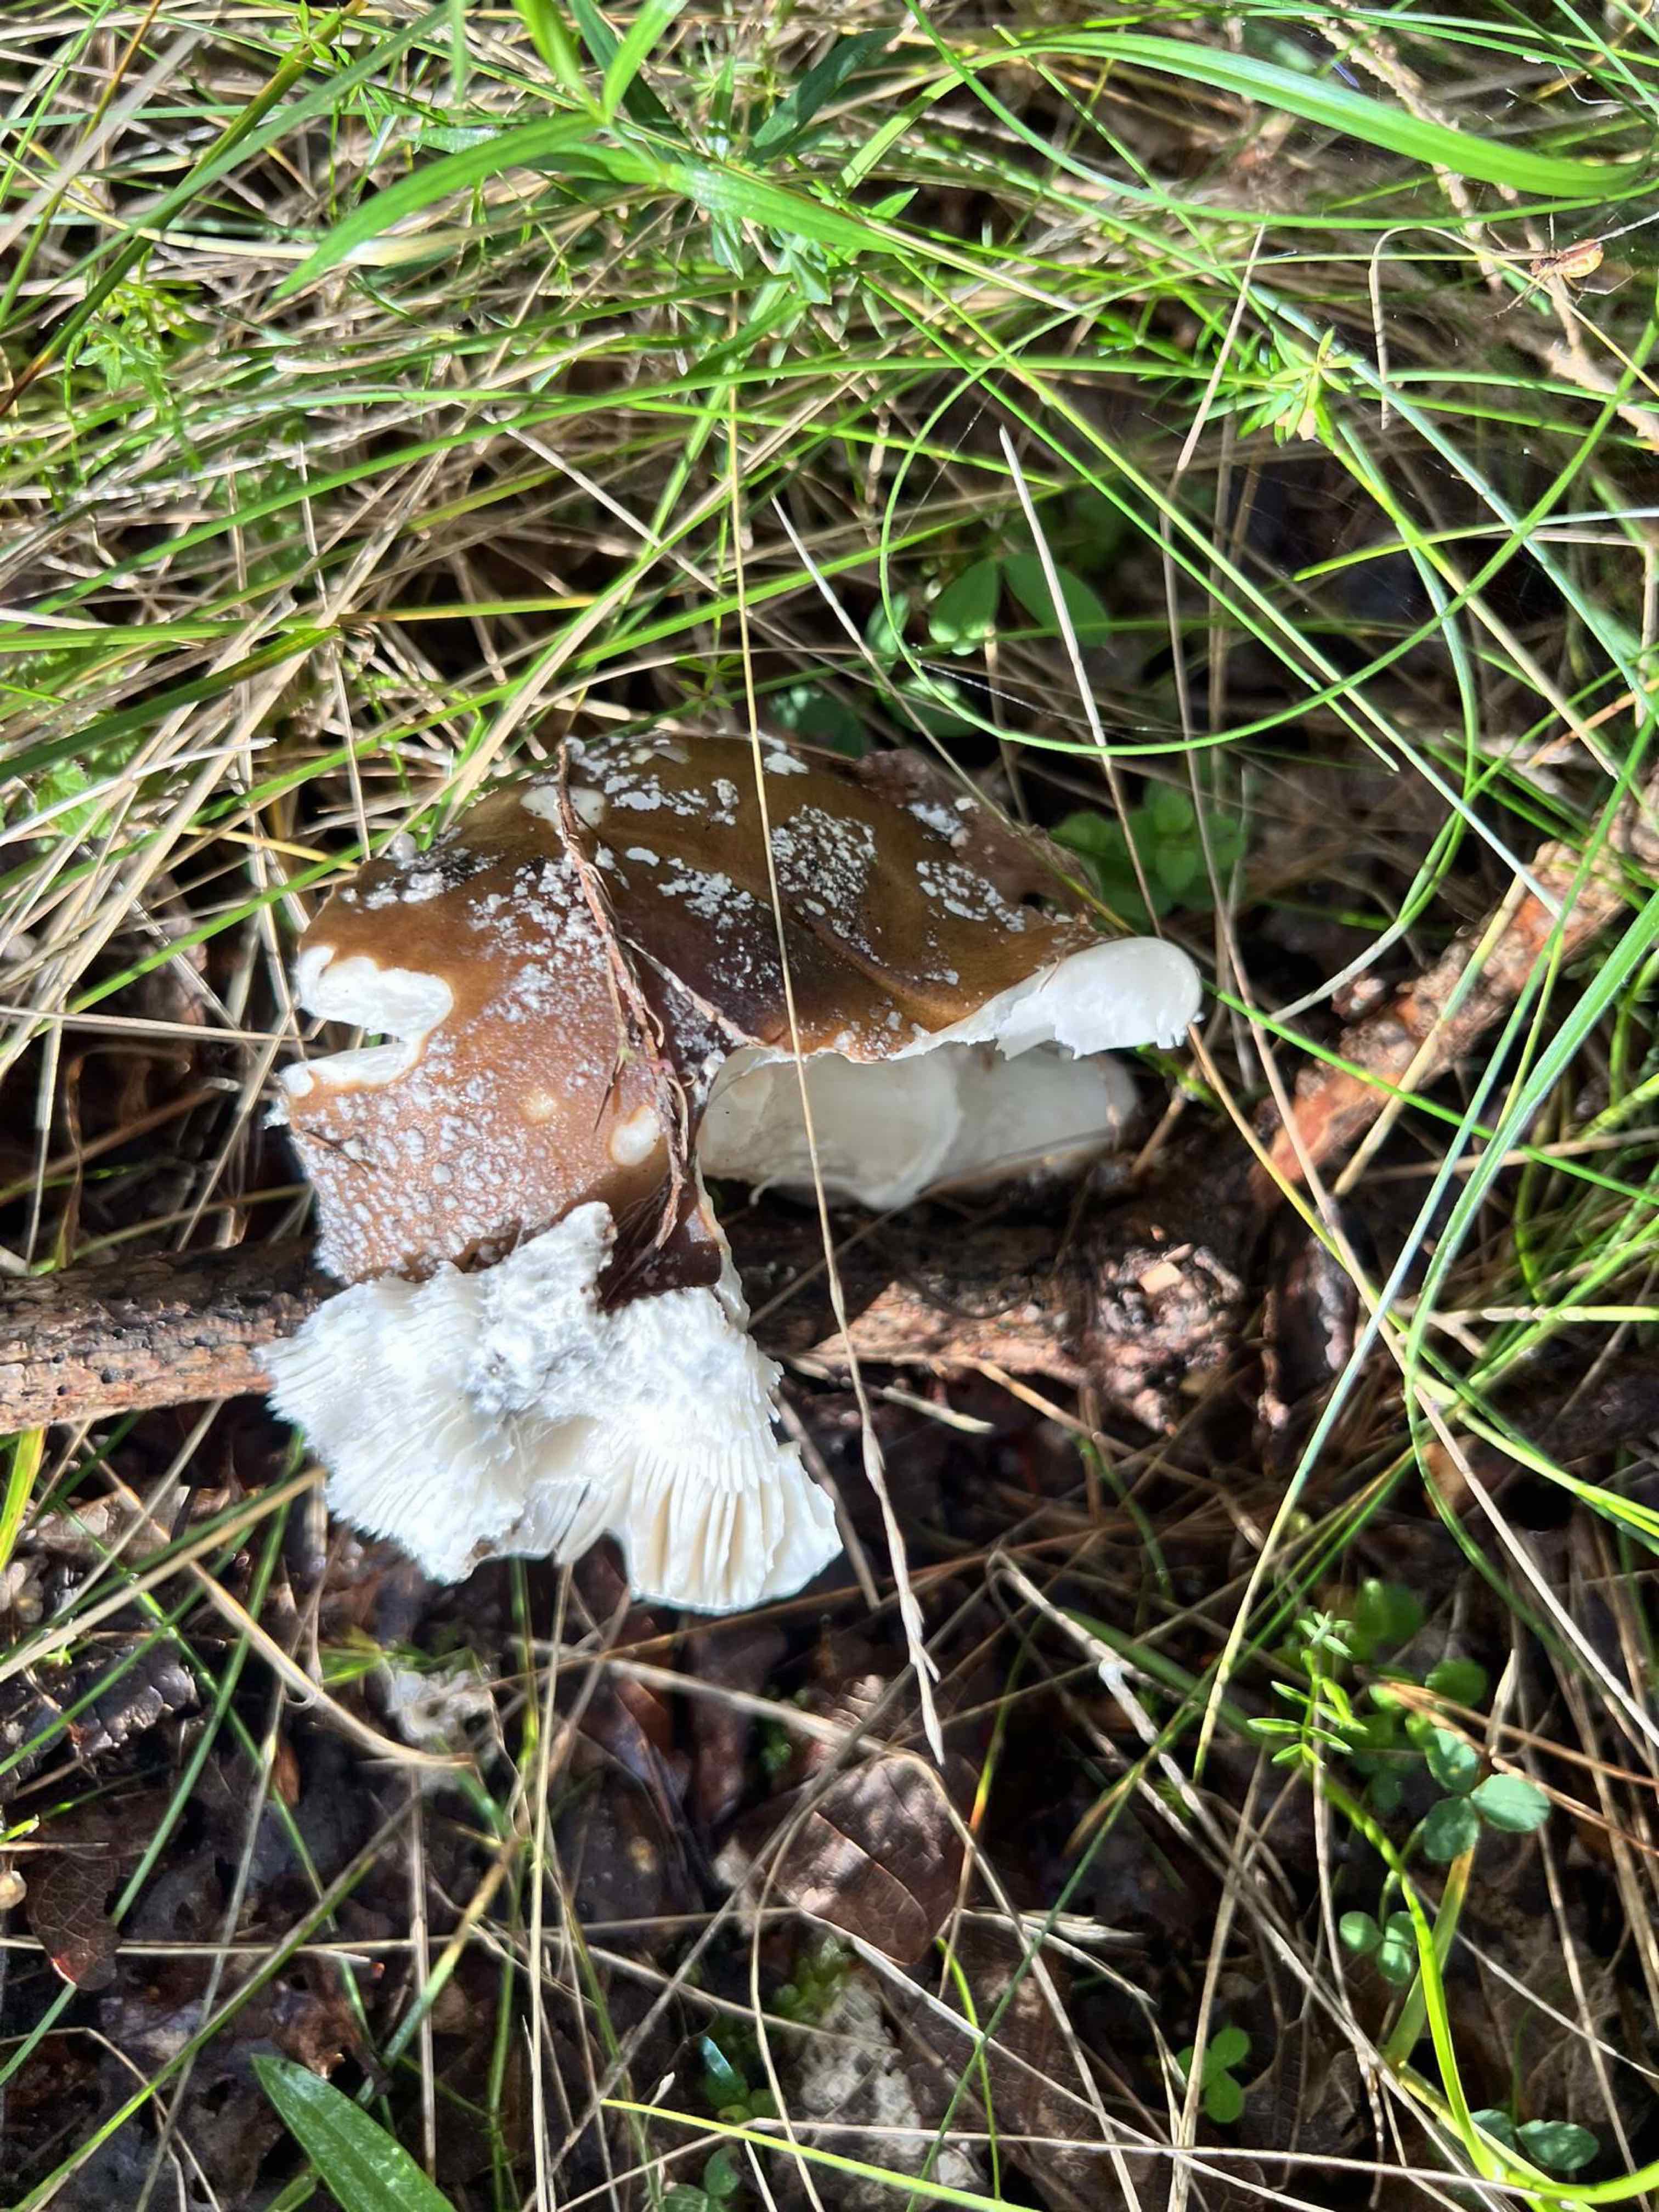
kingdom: Fungi
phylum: Basidiomycota
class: Agaricomycetes
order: Agaricales
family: Amanitaceae
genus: Amanita
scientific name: Amanita
